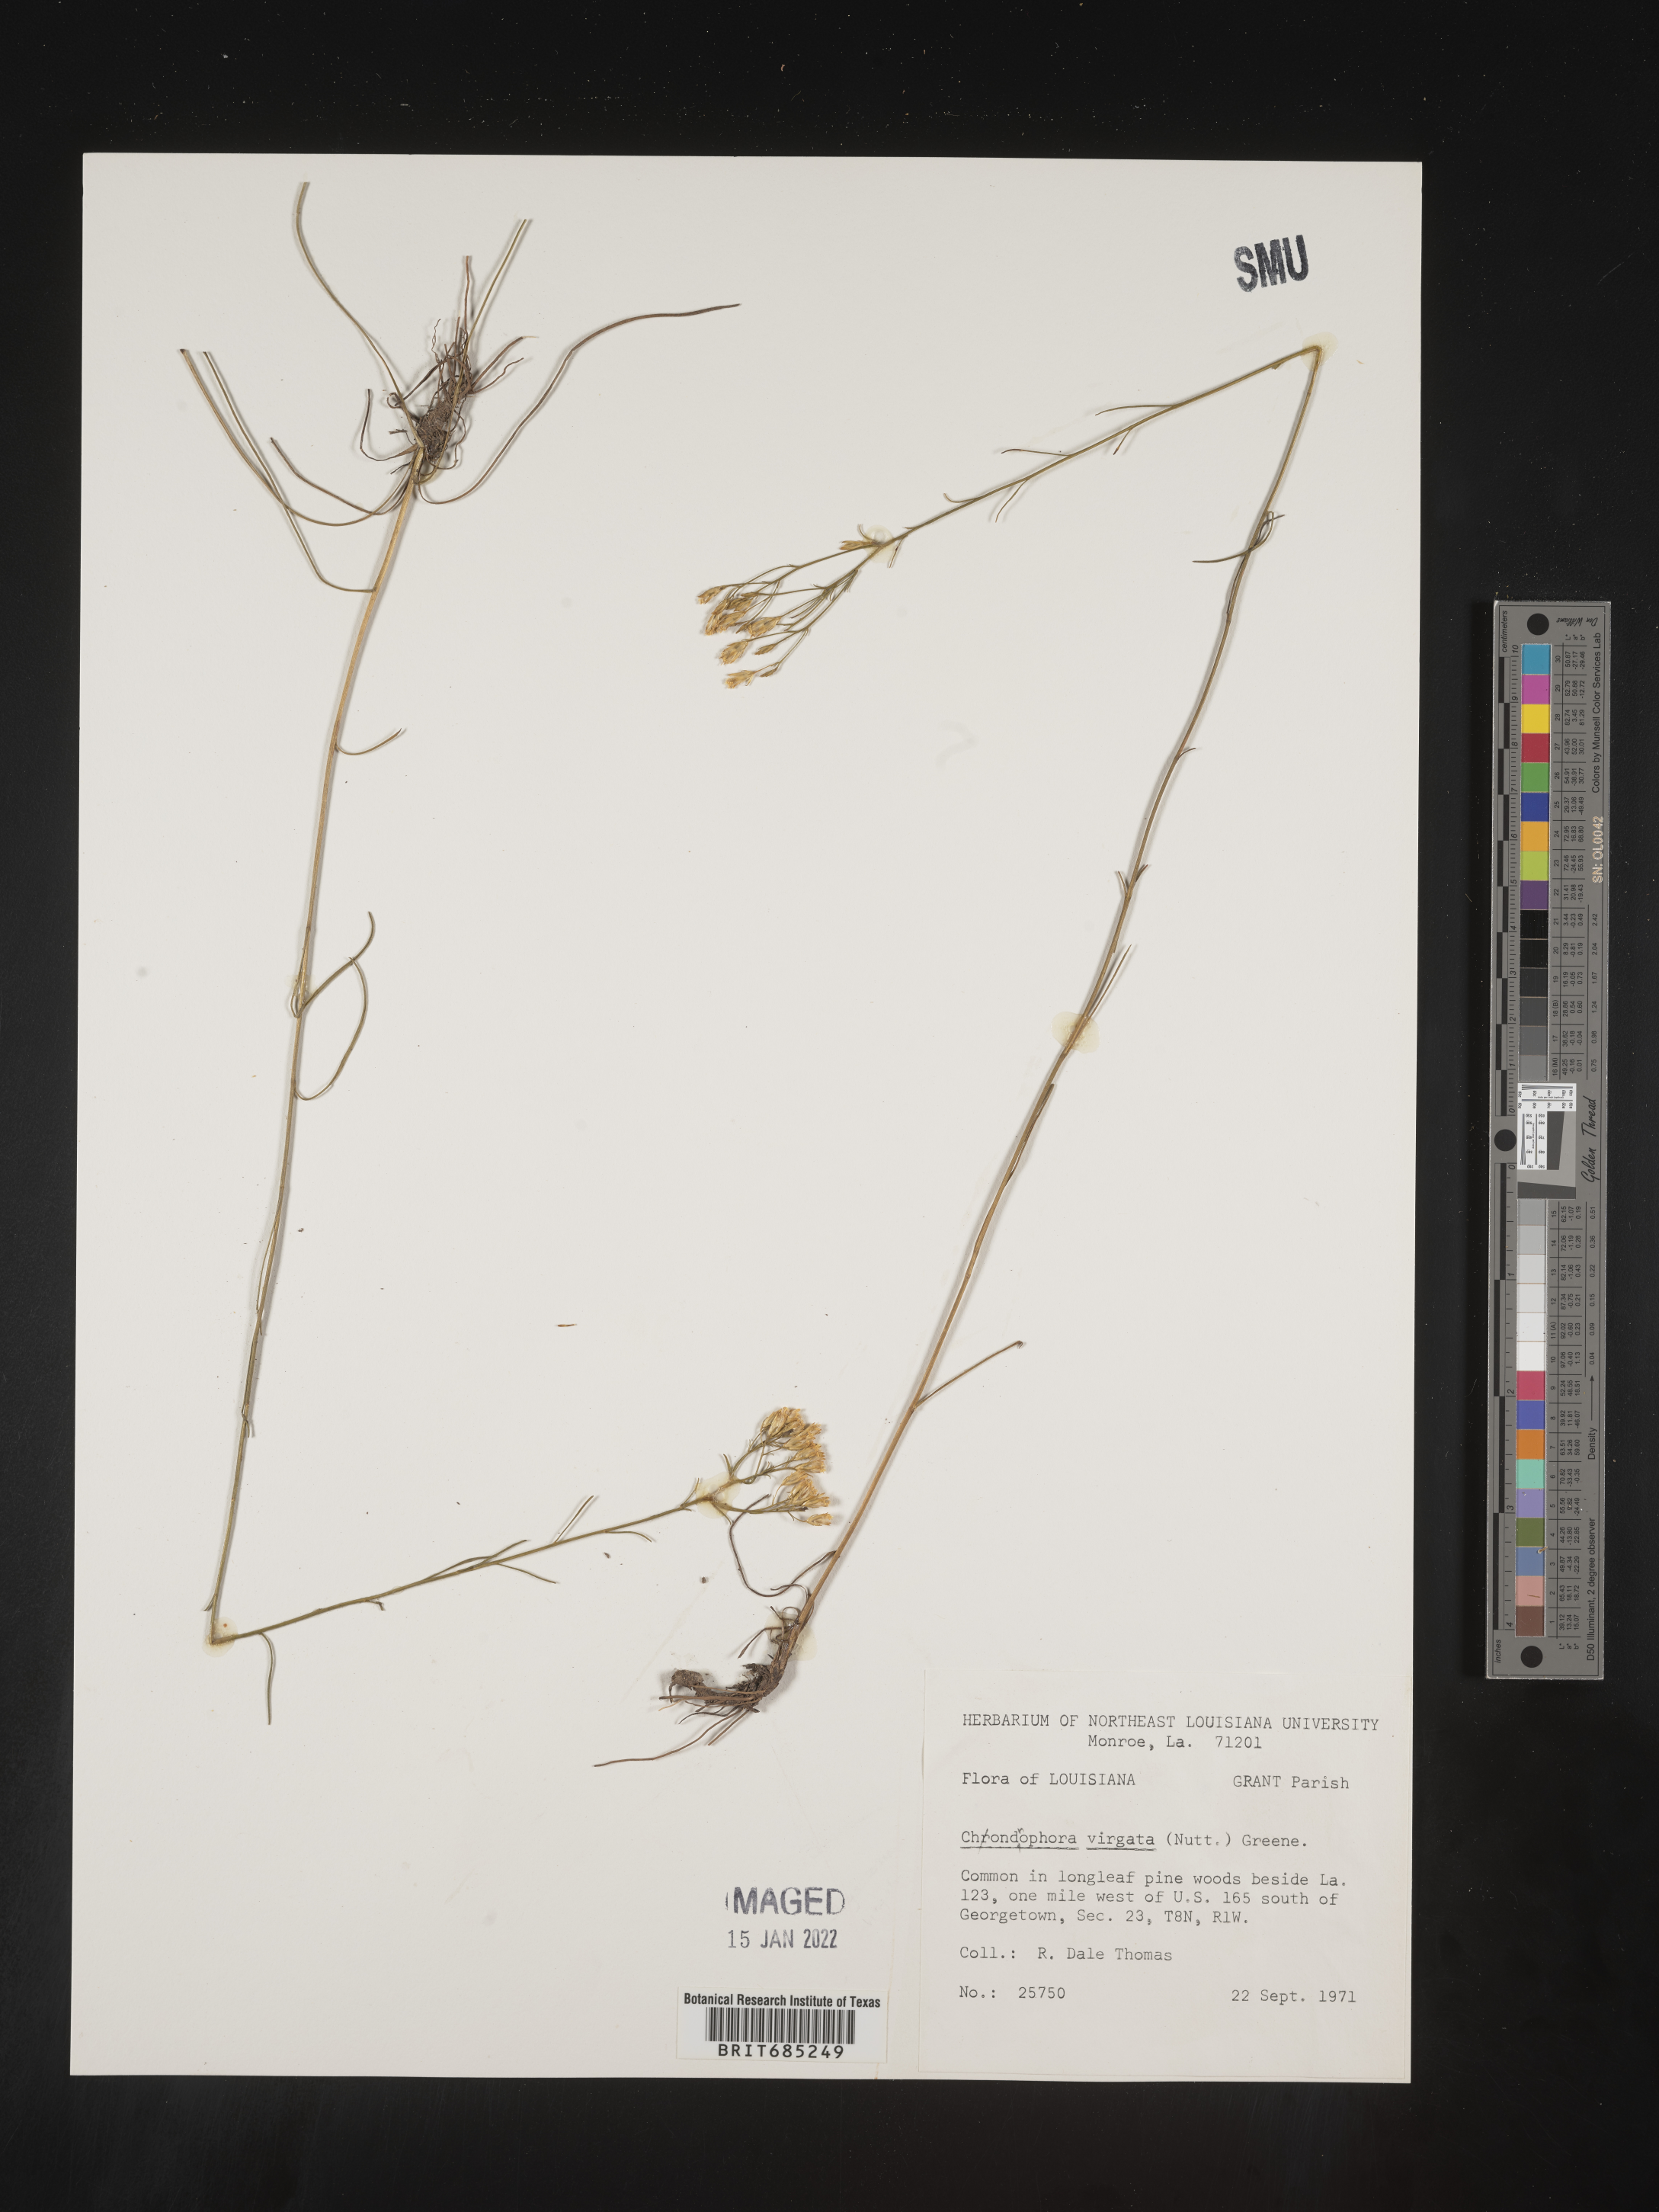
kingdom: Plantae
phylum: Tracheophyta
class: Magnoliopsida
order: Asterales
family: Asteraceae
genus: Bigelowia
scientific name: Bigelowia nuttallii
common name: Nuttall's rayless-goldenrod
